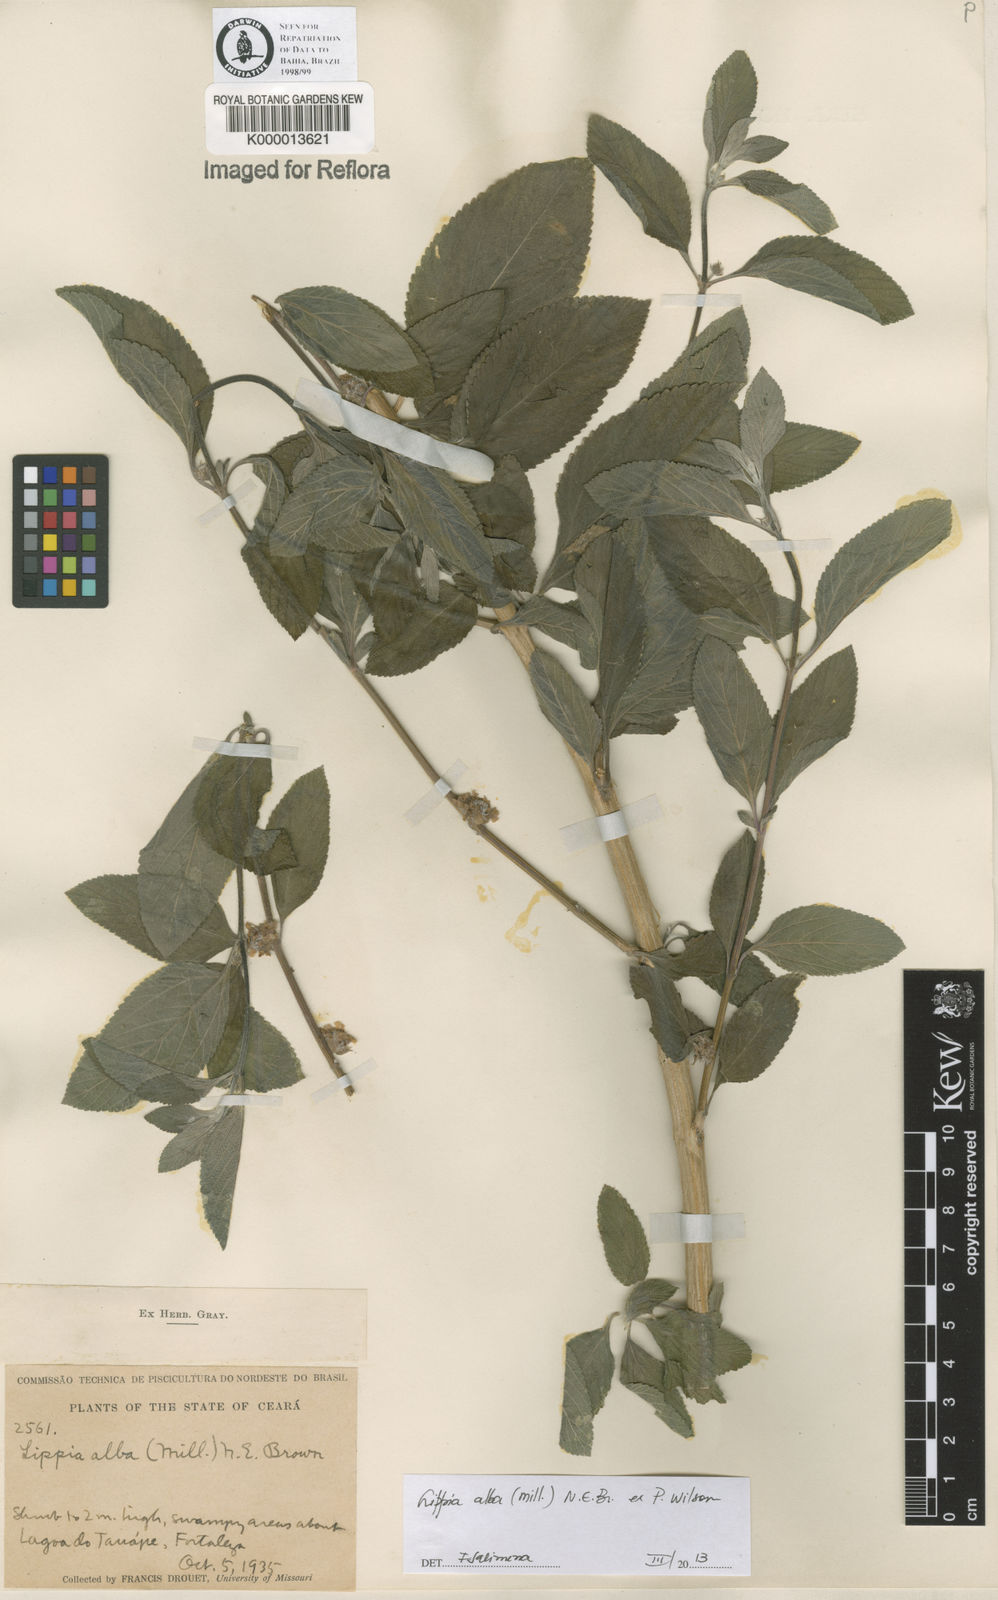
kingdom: Plantae
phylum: Tracheophyta
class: Magnoliopsida
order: Lamiales
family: Verbenaceae
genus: Lippia
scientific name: Lippia
